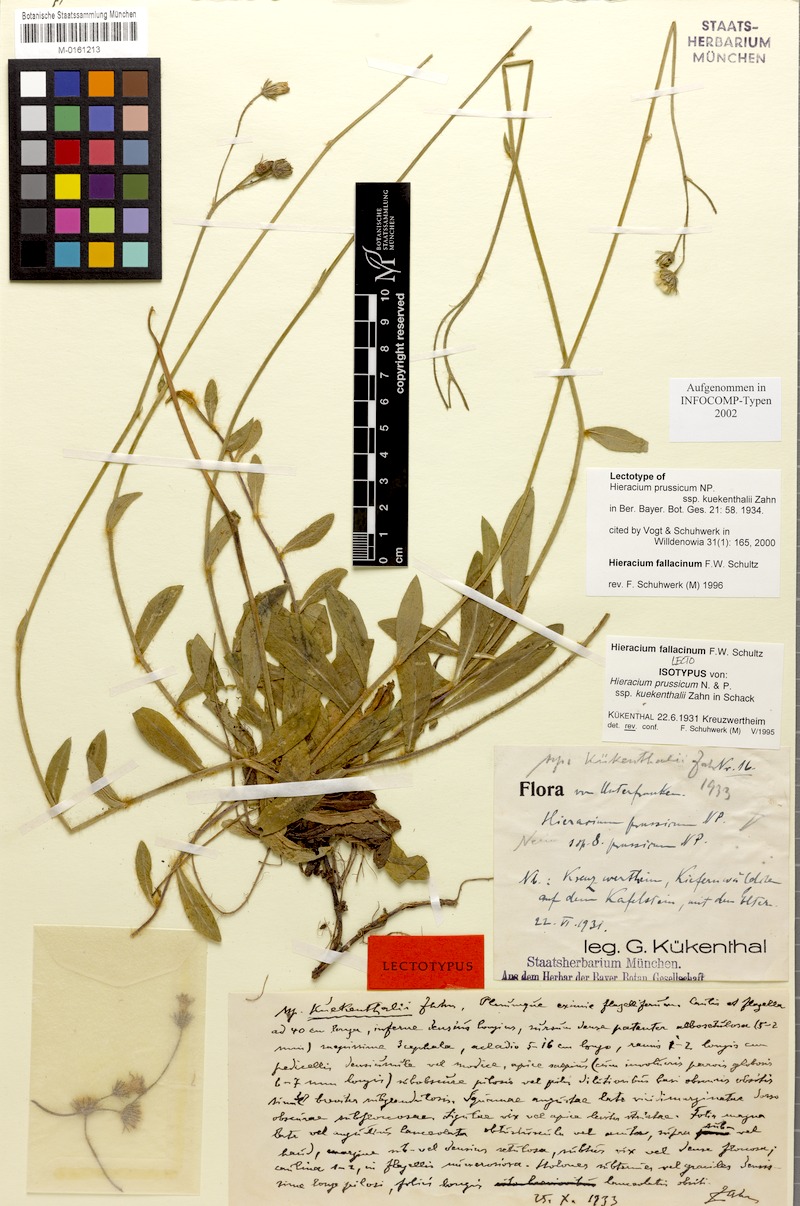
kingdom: Plantae
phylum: Tracheophyta
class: Magnoliopsida
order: Asterales
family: Asteraceae
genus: Pilosella
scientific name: Pilosella fallacina
